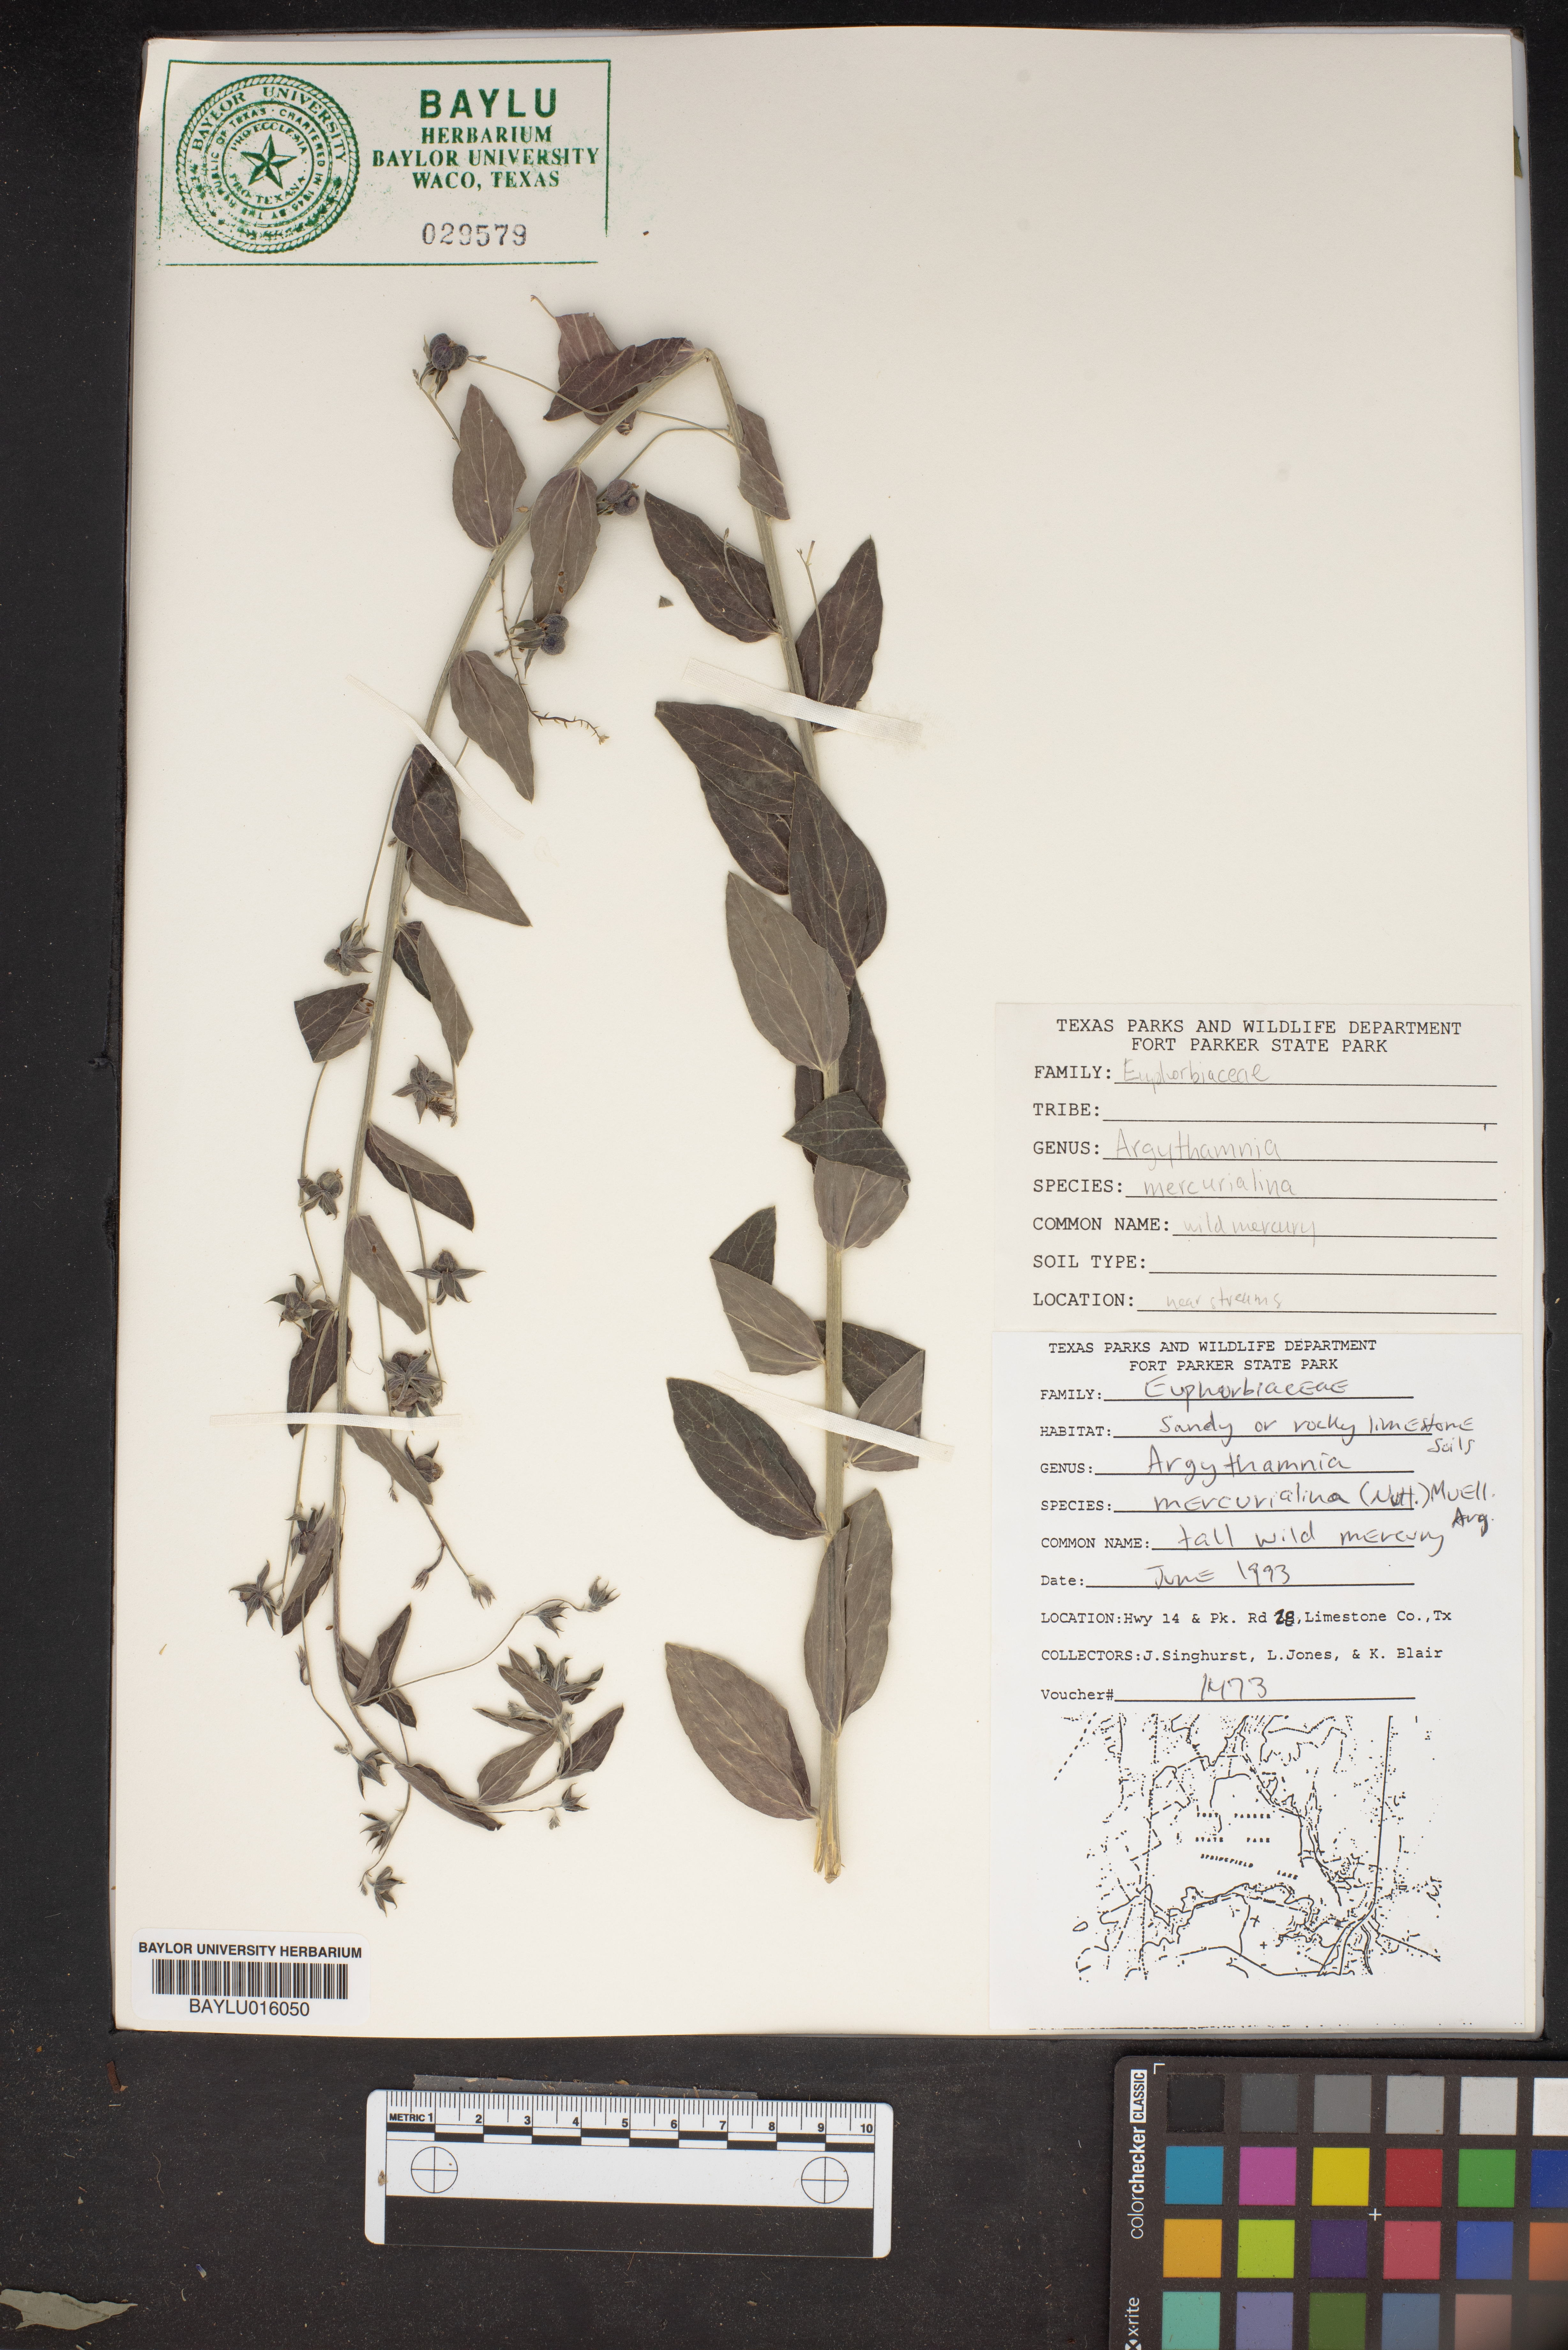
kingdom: Plantae
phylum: Tracheophyta
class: Magnoliopsida
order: Malpighiales
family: Euphorbiaceae
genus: Ditaxis
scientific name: Ditaxis mercurialina
